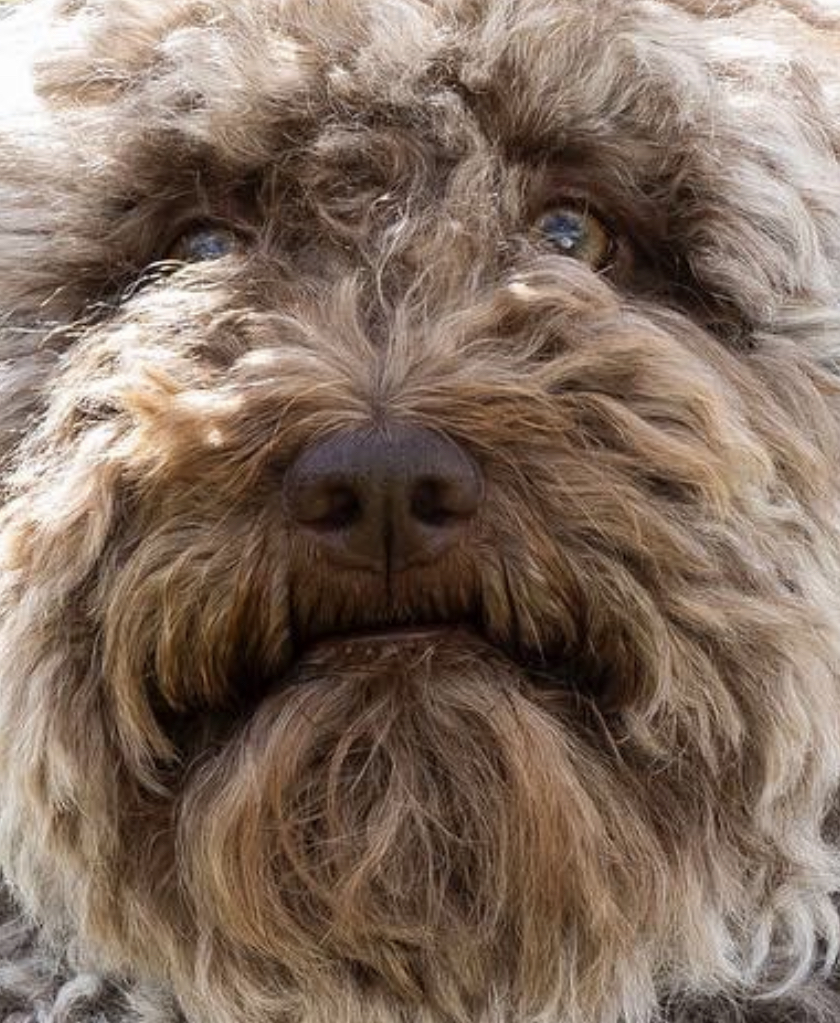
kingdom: Fungi
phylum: Ascomycota
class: Pezizomycetes
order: Pezizales
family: Tuberaceae
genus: Tuber
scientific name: Tuber rufum
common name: rødbrun trøffel
